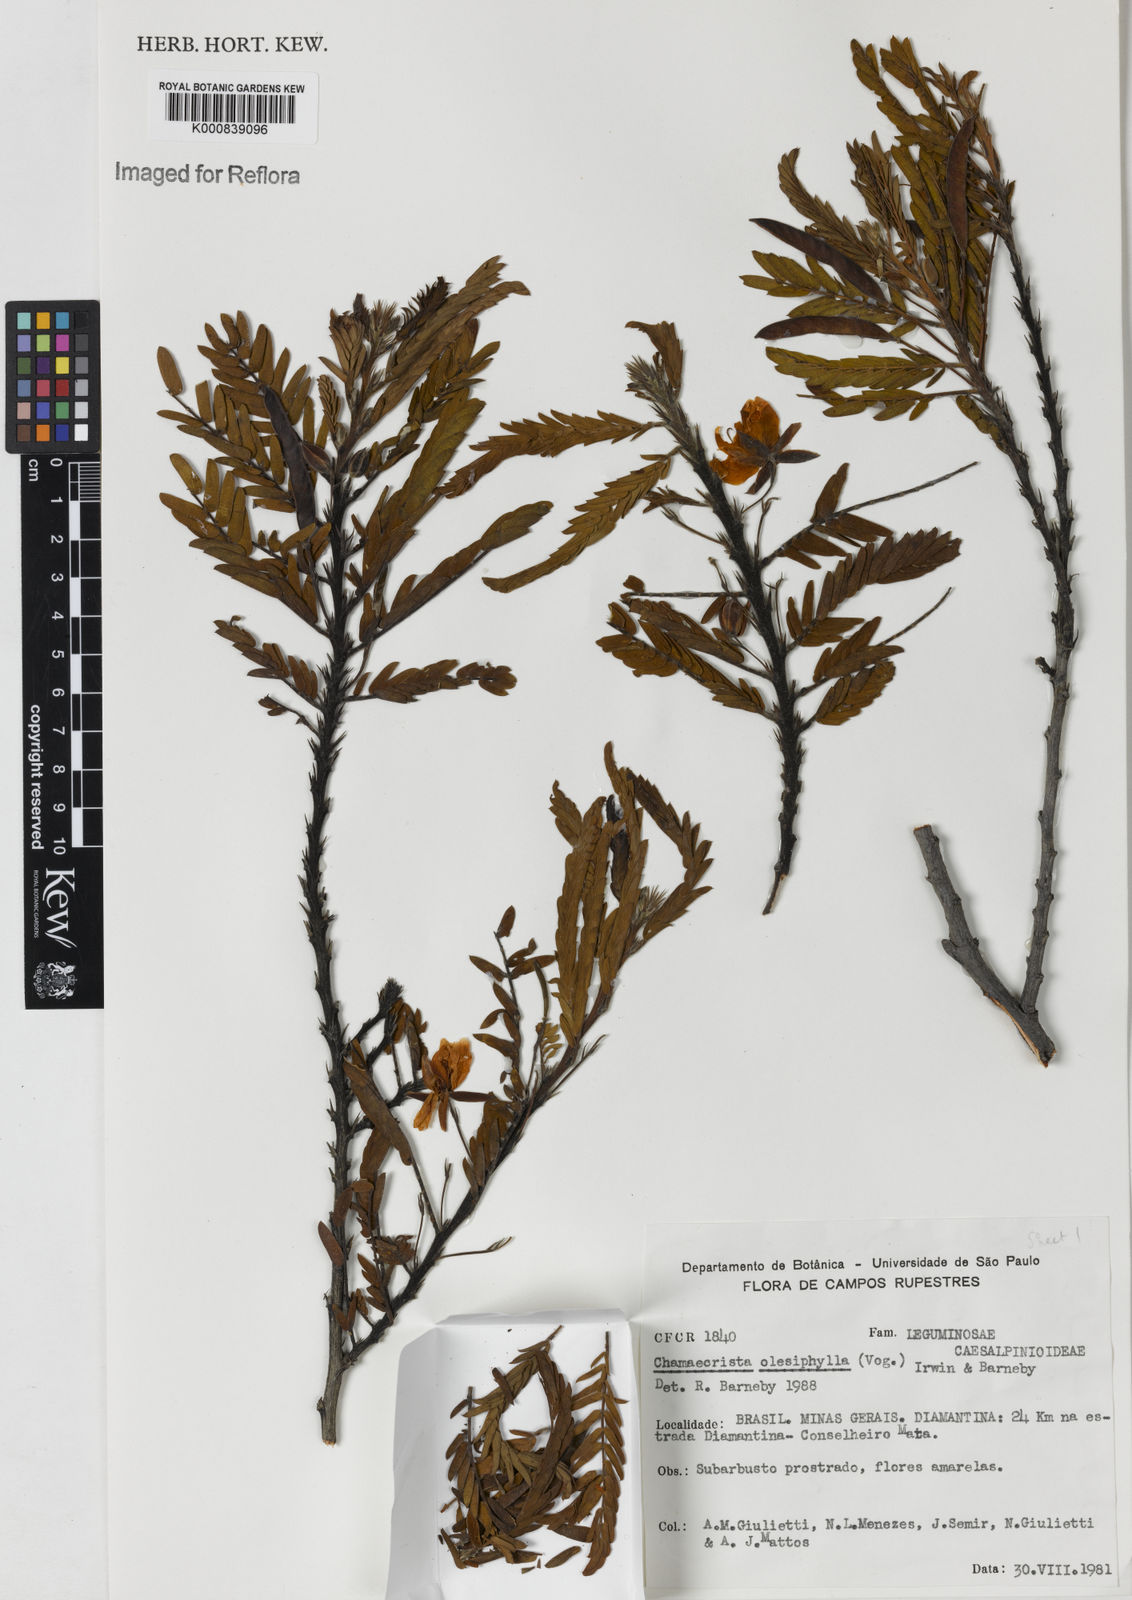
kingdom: Plantae
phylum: Tracheophyta
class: Magnoliopsida
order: Fabales
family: Fabaceae
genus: Chamaecrista
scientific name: Chamaecrista
